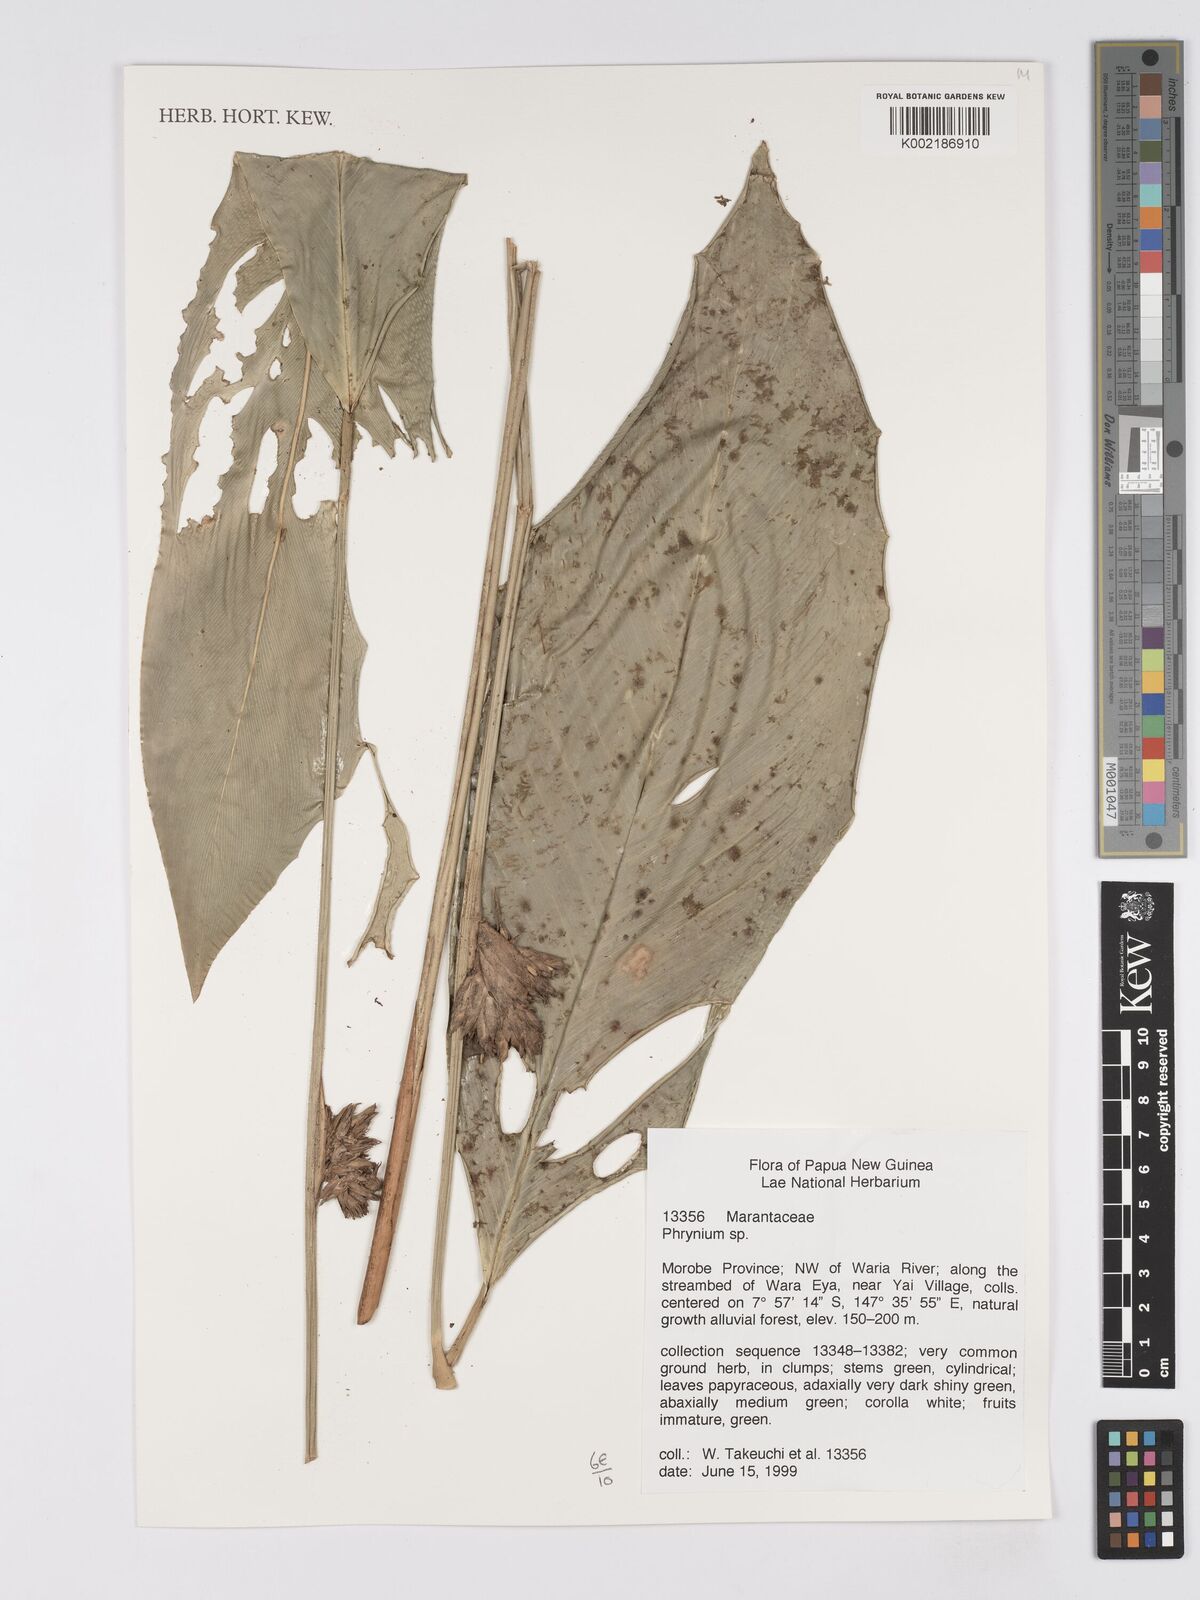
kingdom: Plantae
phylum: Tracheophyta
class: Liliopsida
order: Zingiberales
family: Marantaceae
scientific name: Marantaceae
